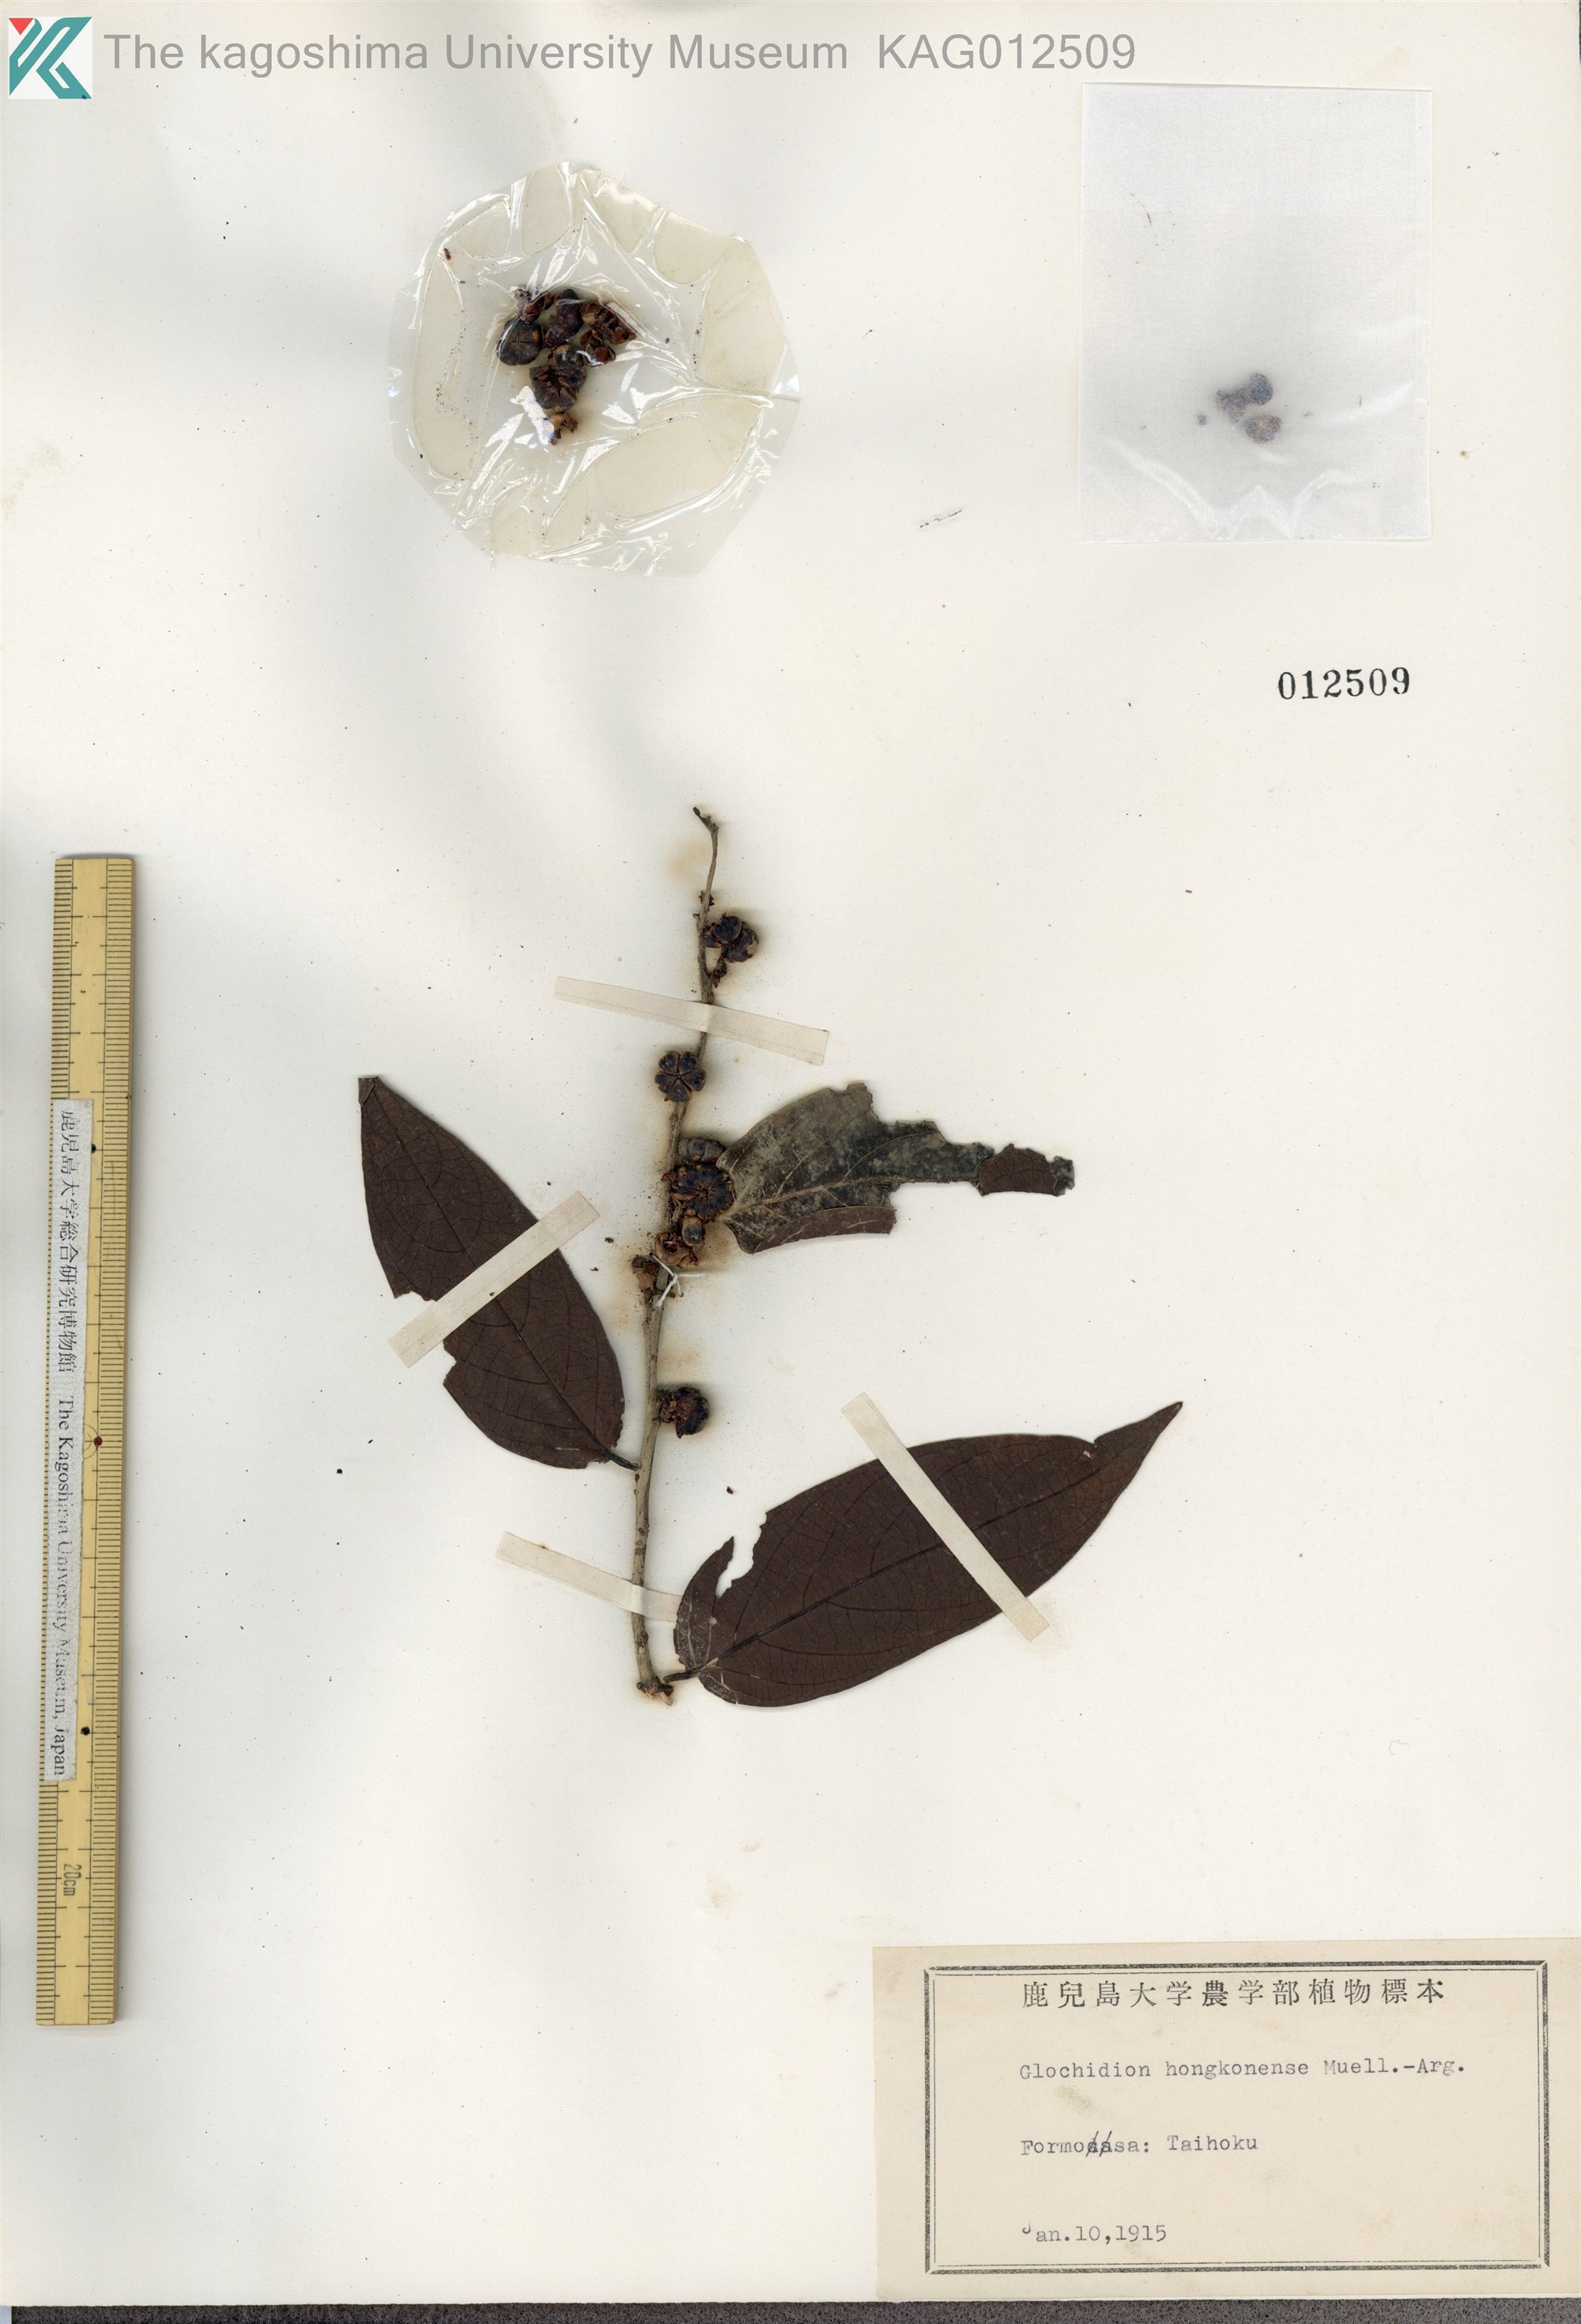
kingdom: Plantae
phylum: Tracheophyta
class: Magnoliopsida
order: Malpighiales
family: Phyllanthaceae
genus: Glochidion
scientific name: Glochidion zeylanicum
